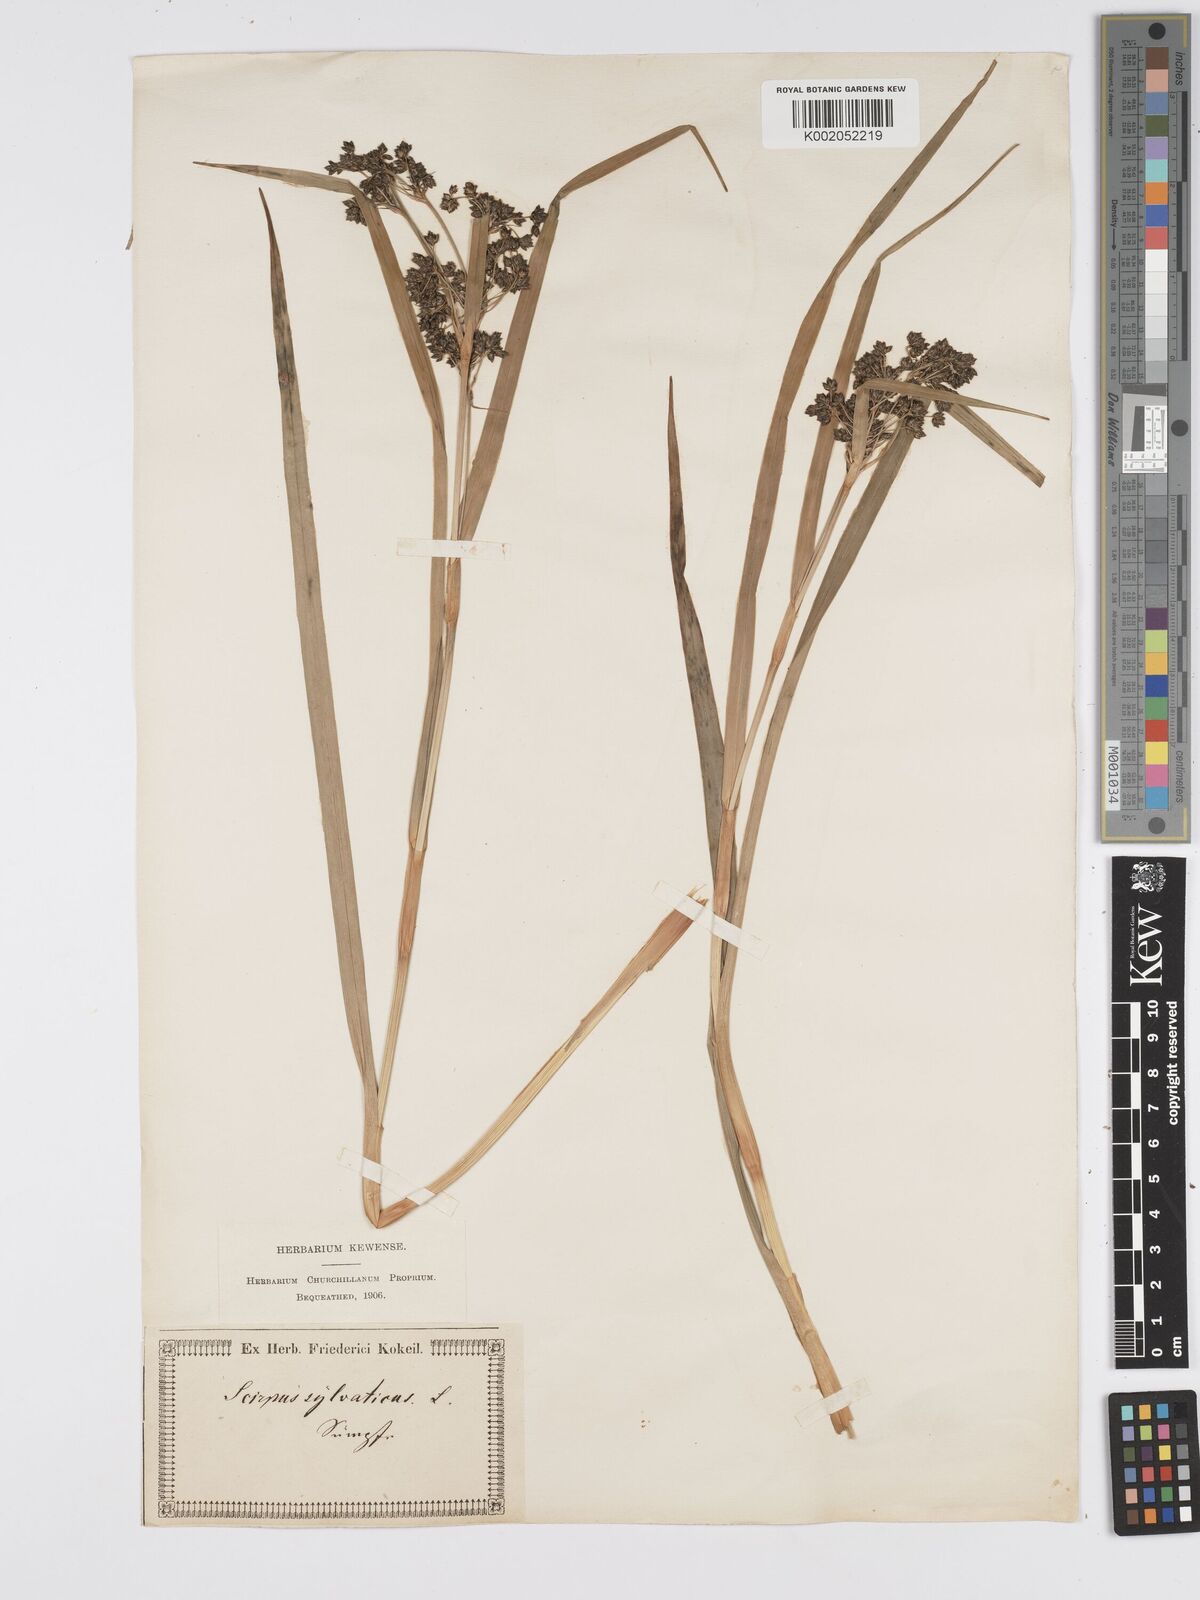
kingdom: Plantae
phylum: Tracheophyta
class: Liliopsida
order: Poales
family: Cyperaceae
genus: Scirpus
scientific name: Scirpus sylvaticus
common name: Wood club-rush
